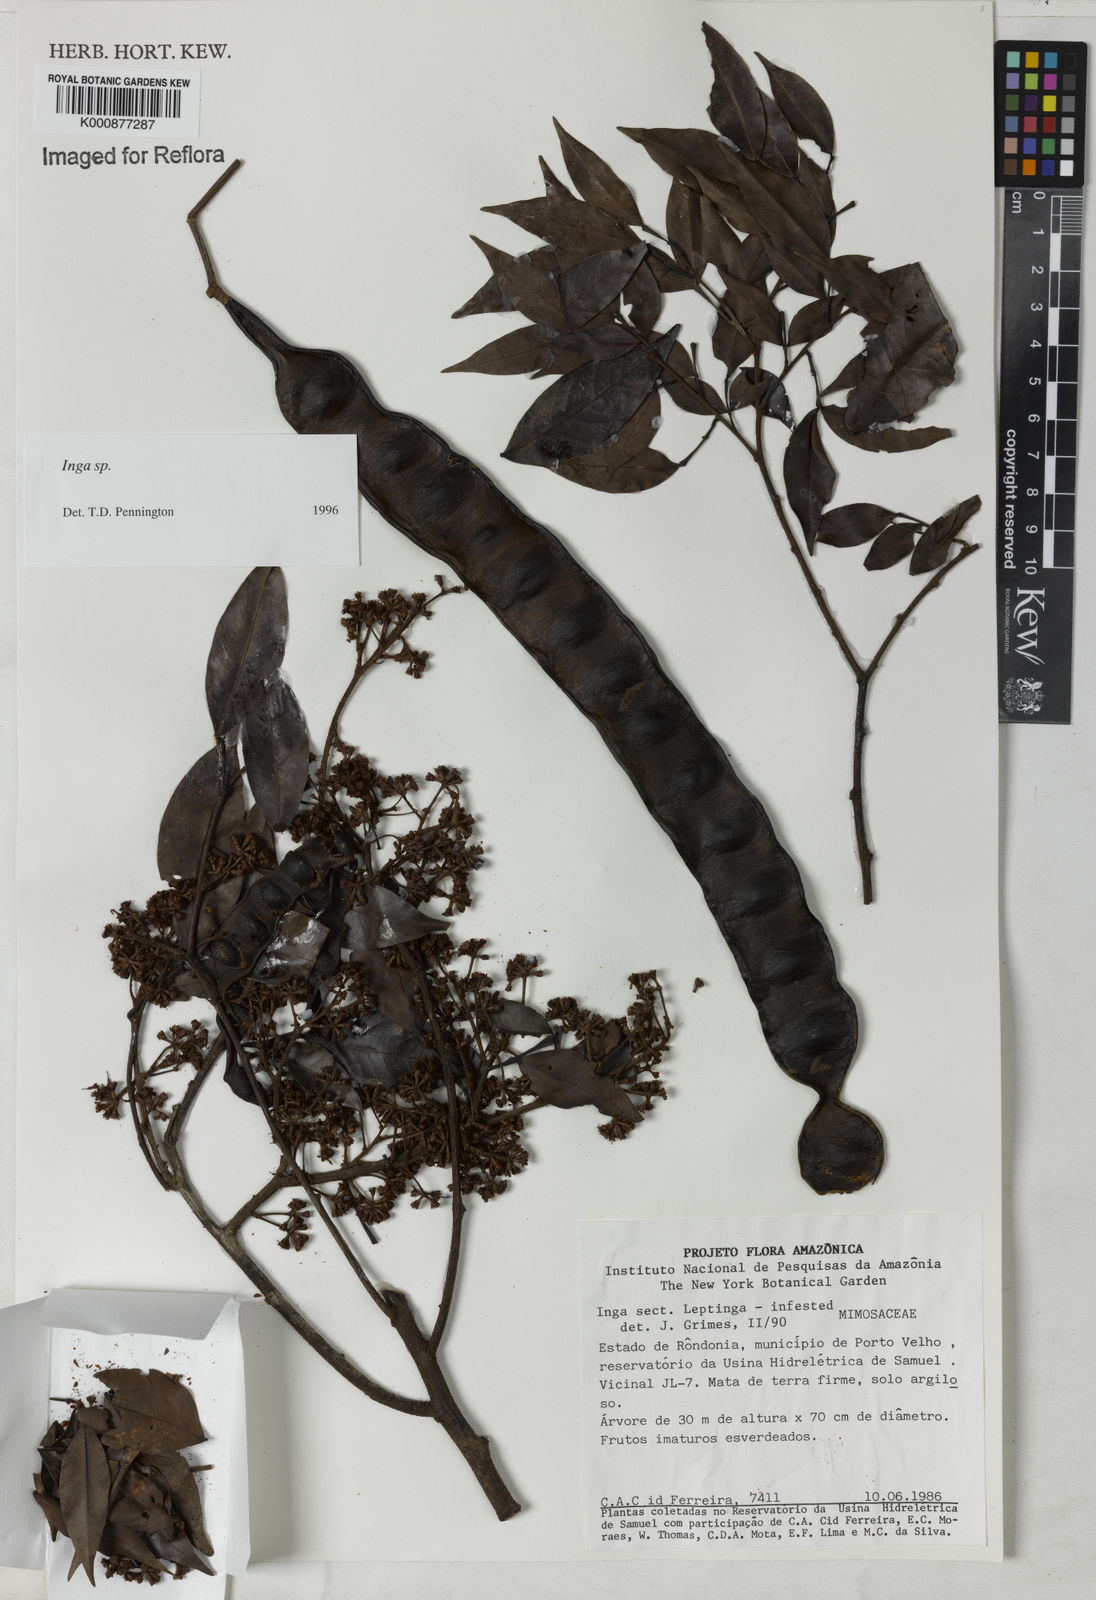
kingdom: Plantae
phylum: Tracheophyta
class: Magnoliopsida
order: Fabales
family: Fabaceae
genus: Inga
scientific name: Inga
